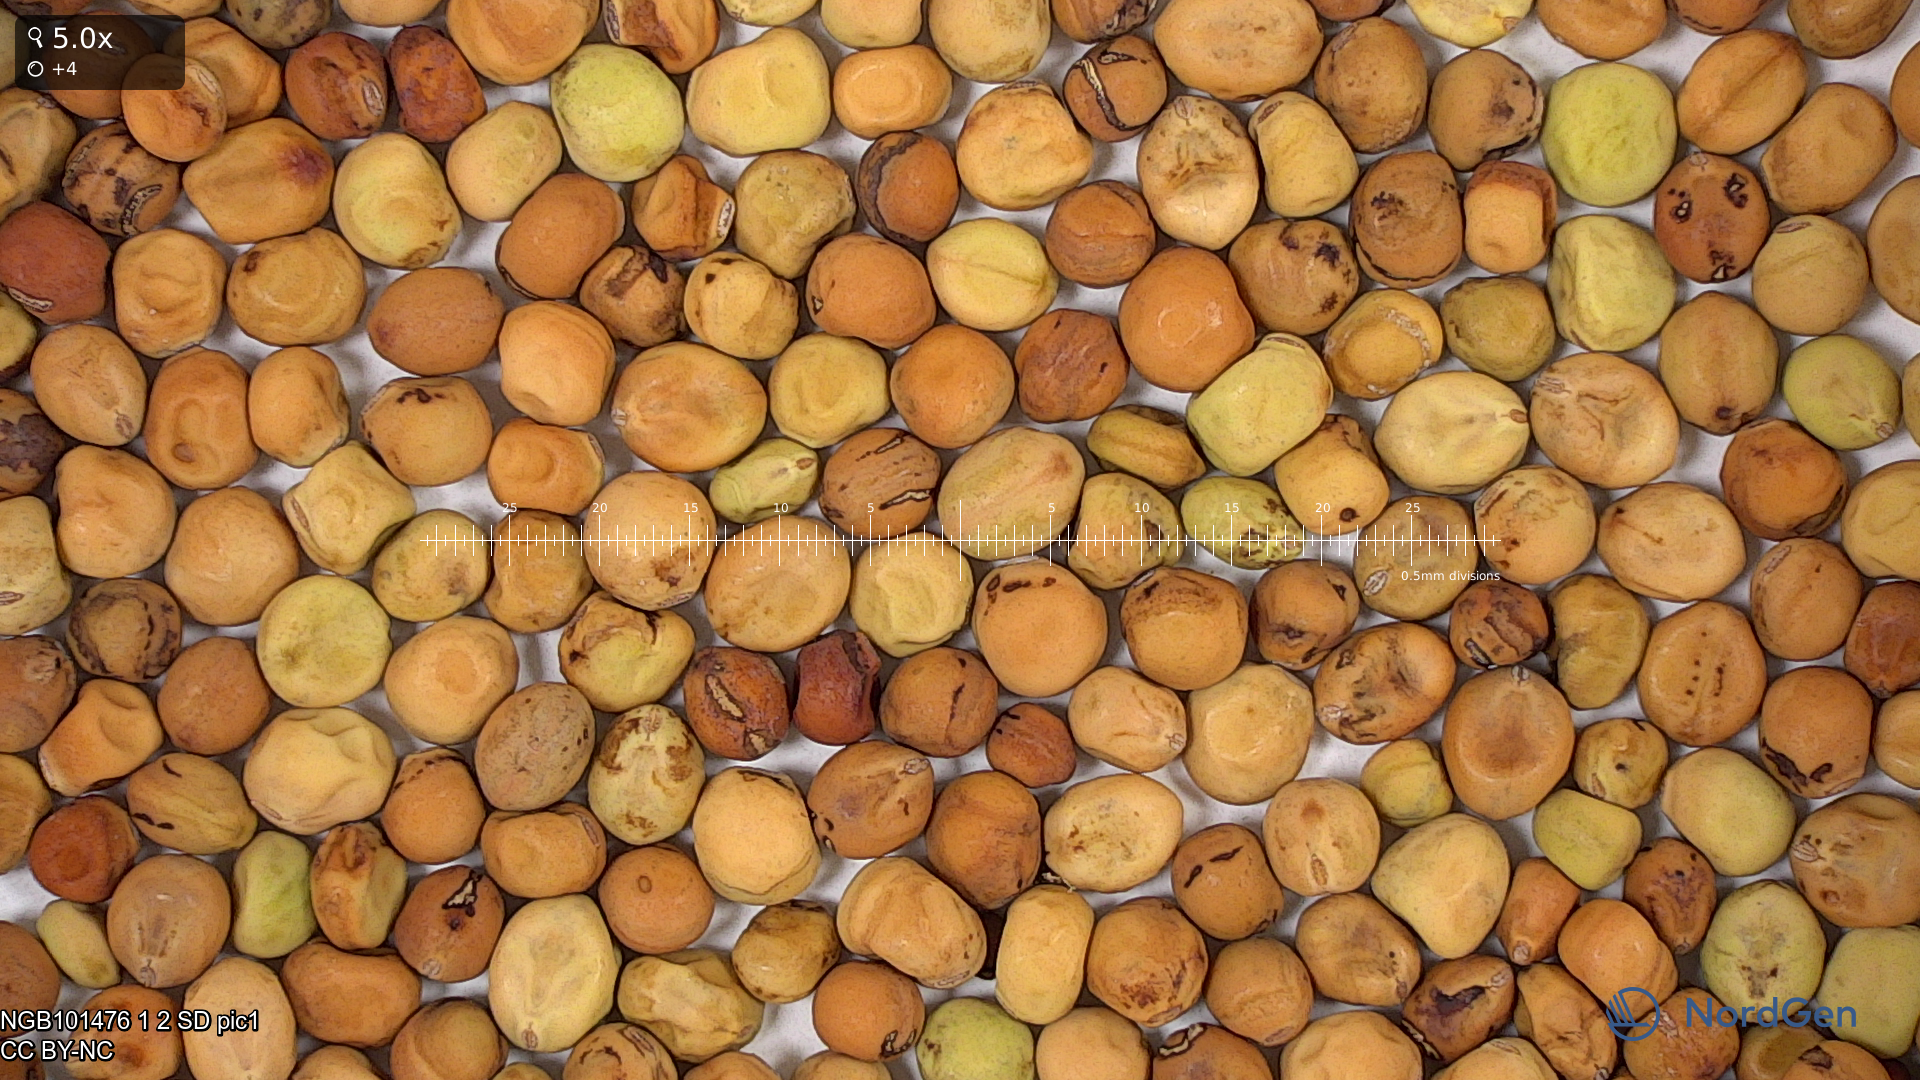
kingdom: Plantae
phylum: Tracheophyta
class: Magnoliopsida
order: Fabales
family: Fabaceae
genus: Lathyrus
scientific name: Lathyrus oleraceus
